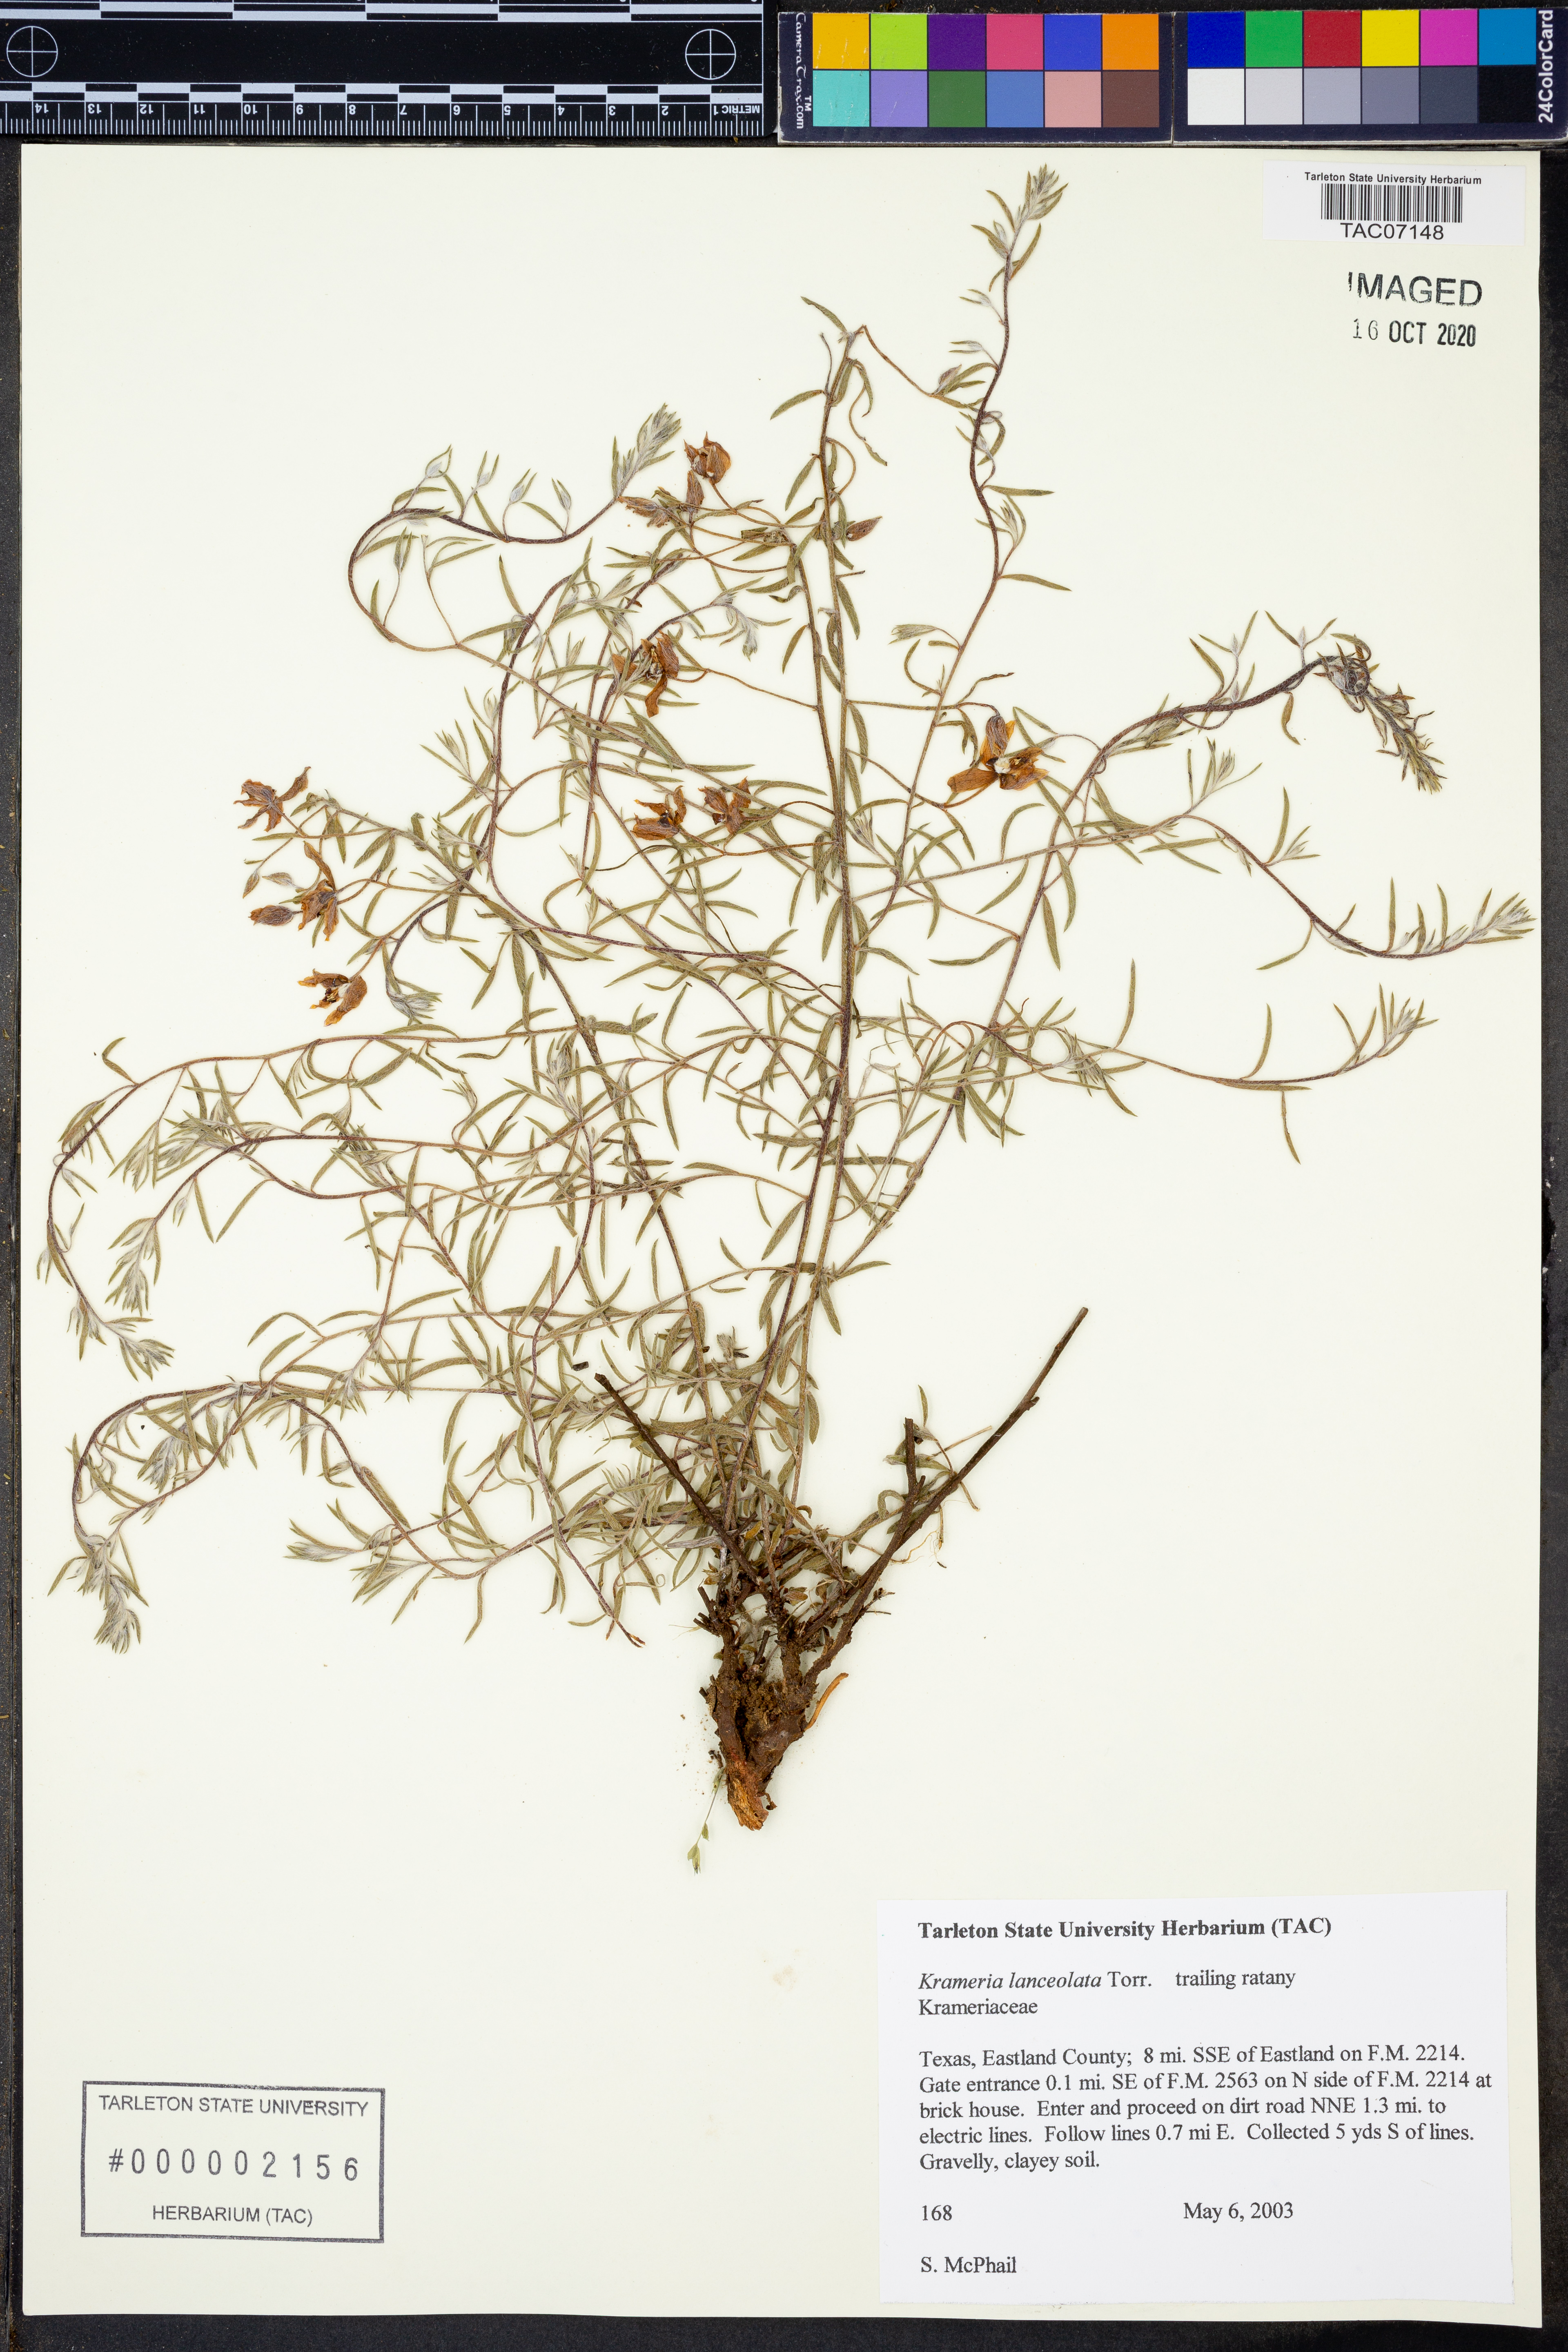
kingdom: Plantae
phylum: Tracheophyta
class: Magnoliopsida
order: Zygophyllales
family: Krameriaceae
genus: Krameria
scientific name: Krameria lanceolata
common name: Ratany
